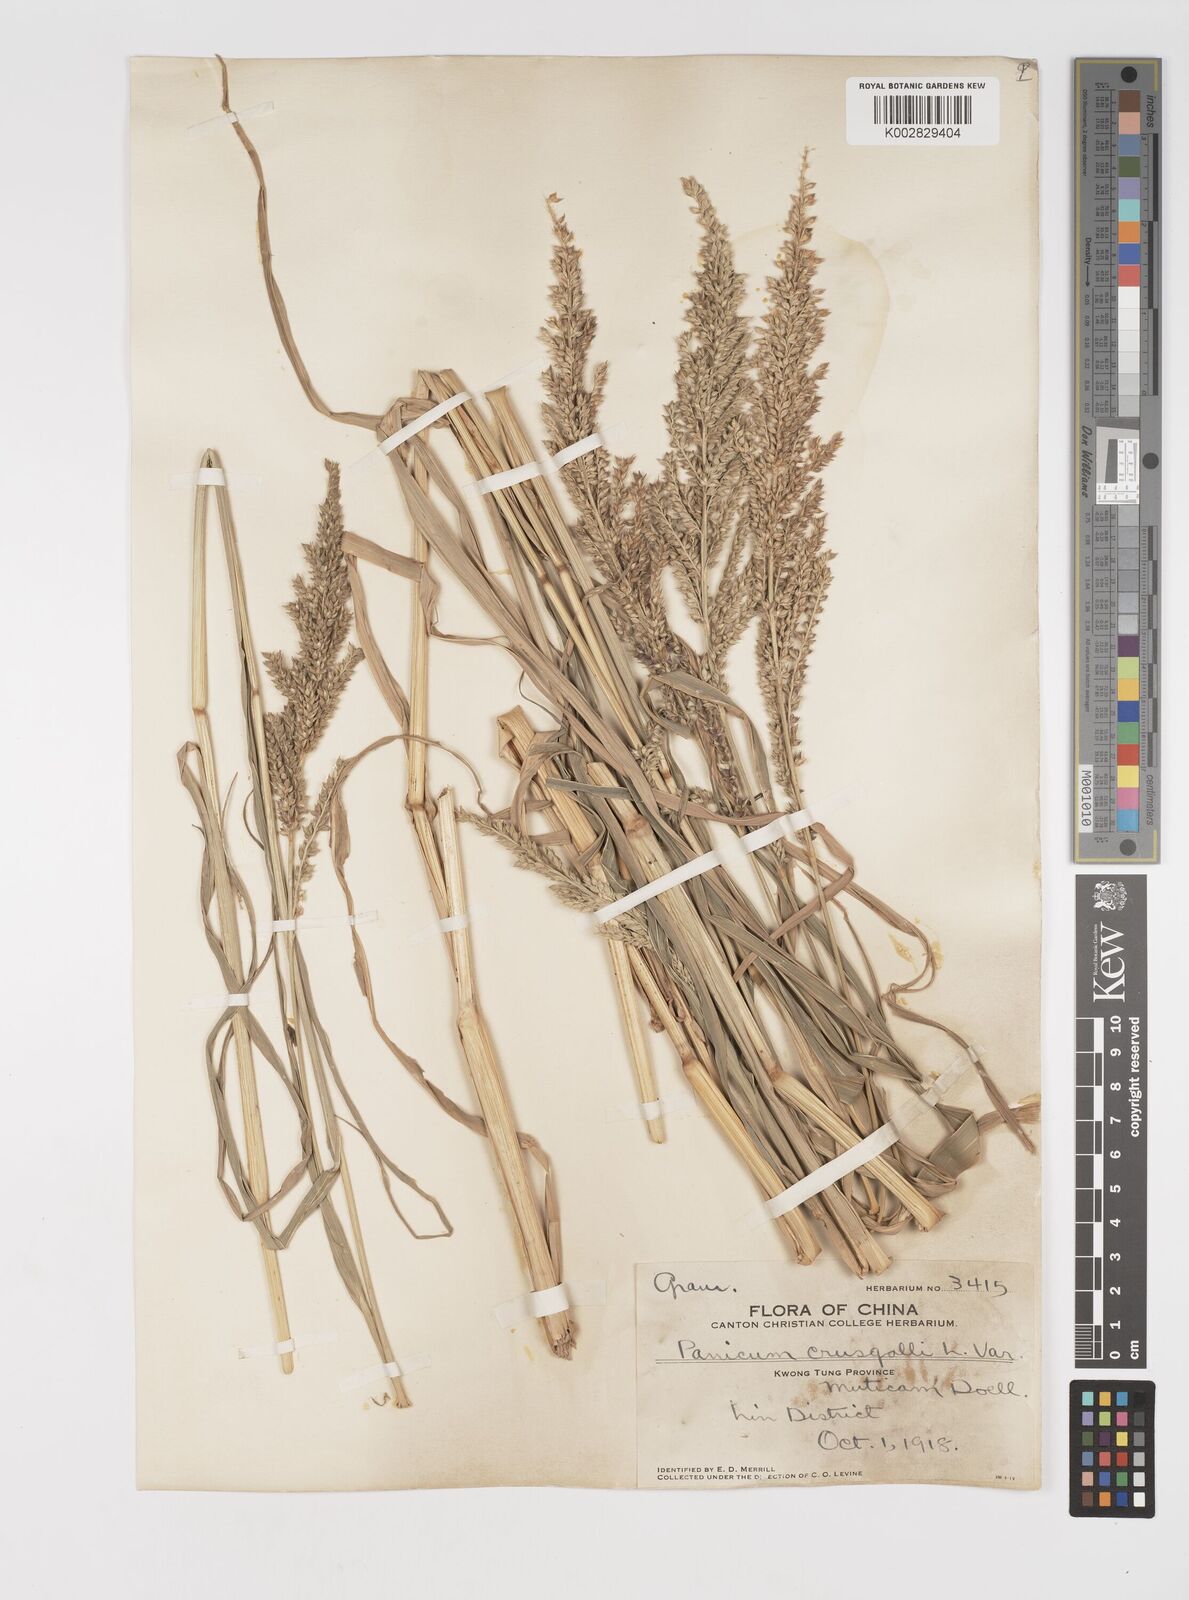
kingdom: Plantae
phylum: Tracheophyta
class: Liliopsida
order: Poales
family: Poaceae
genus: Echinochloa
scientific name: Echinochloa crus-galli
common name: Cockspur
